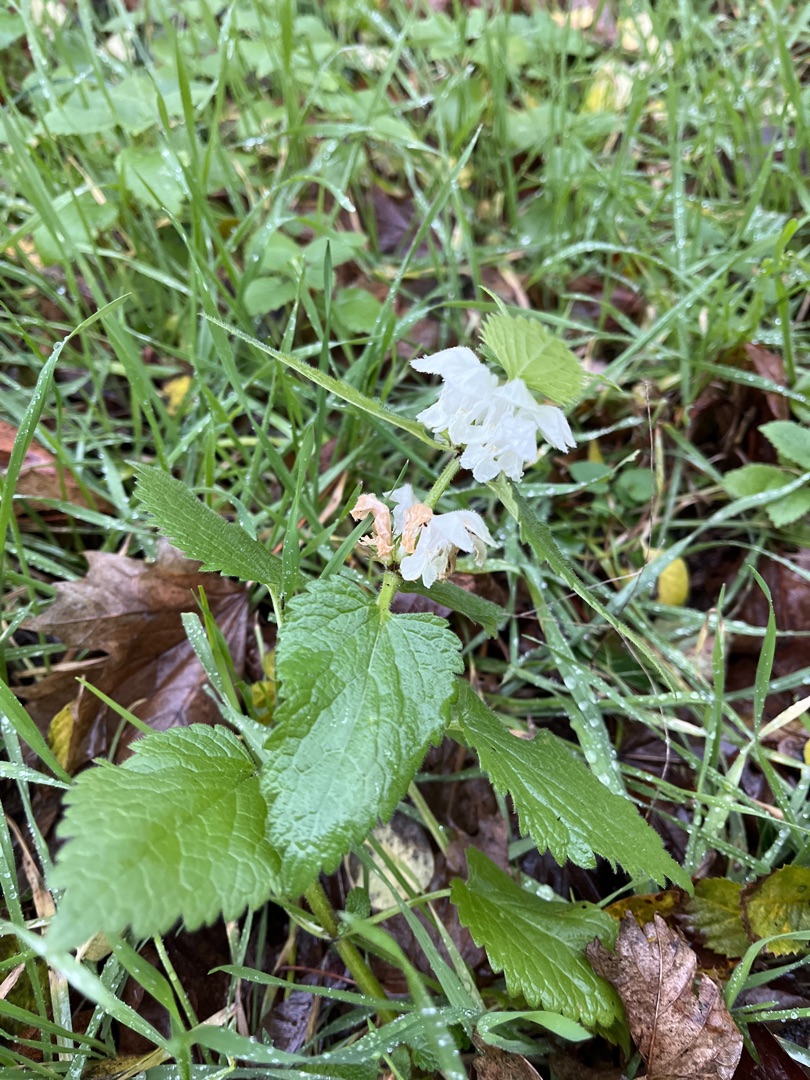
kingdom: Plantae
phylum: Tracheophyta
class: Magnoliopsida
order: Lamiales
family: Lamiaceae
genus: Lamium
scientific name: Lamium album
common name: Døvnælde
